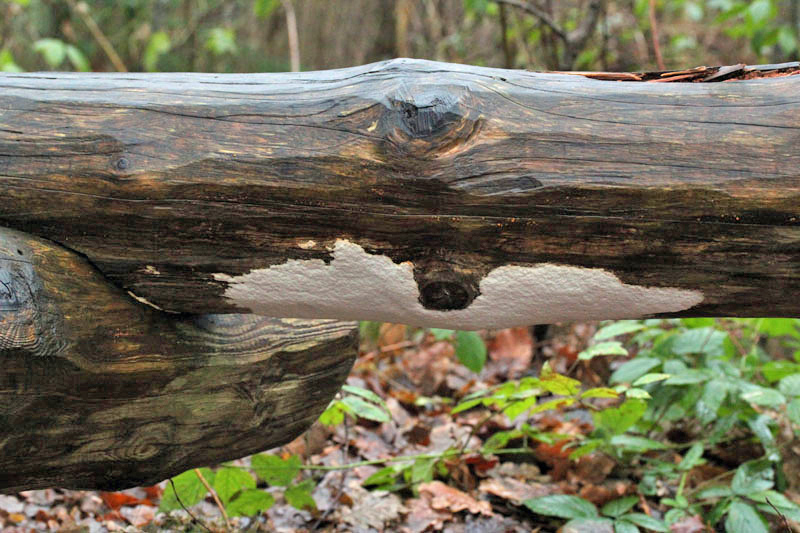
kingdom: Fungi
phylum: Basidiomycota
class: Agaricomycetes
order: Polyporales
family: Gelatoporiaceae
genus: Cinereomyces
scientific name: Cinereomyces lindbladii
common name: almindelig gråporesvamp
